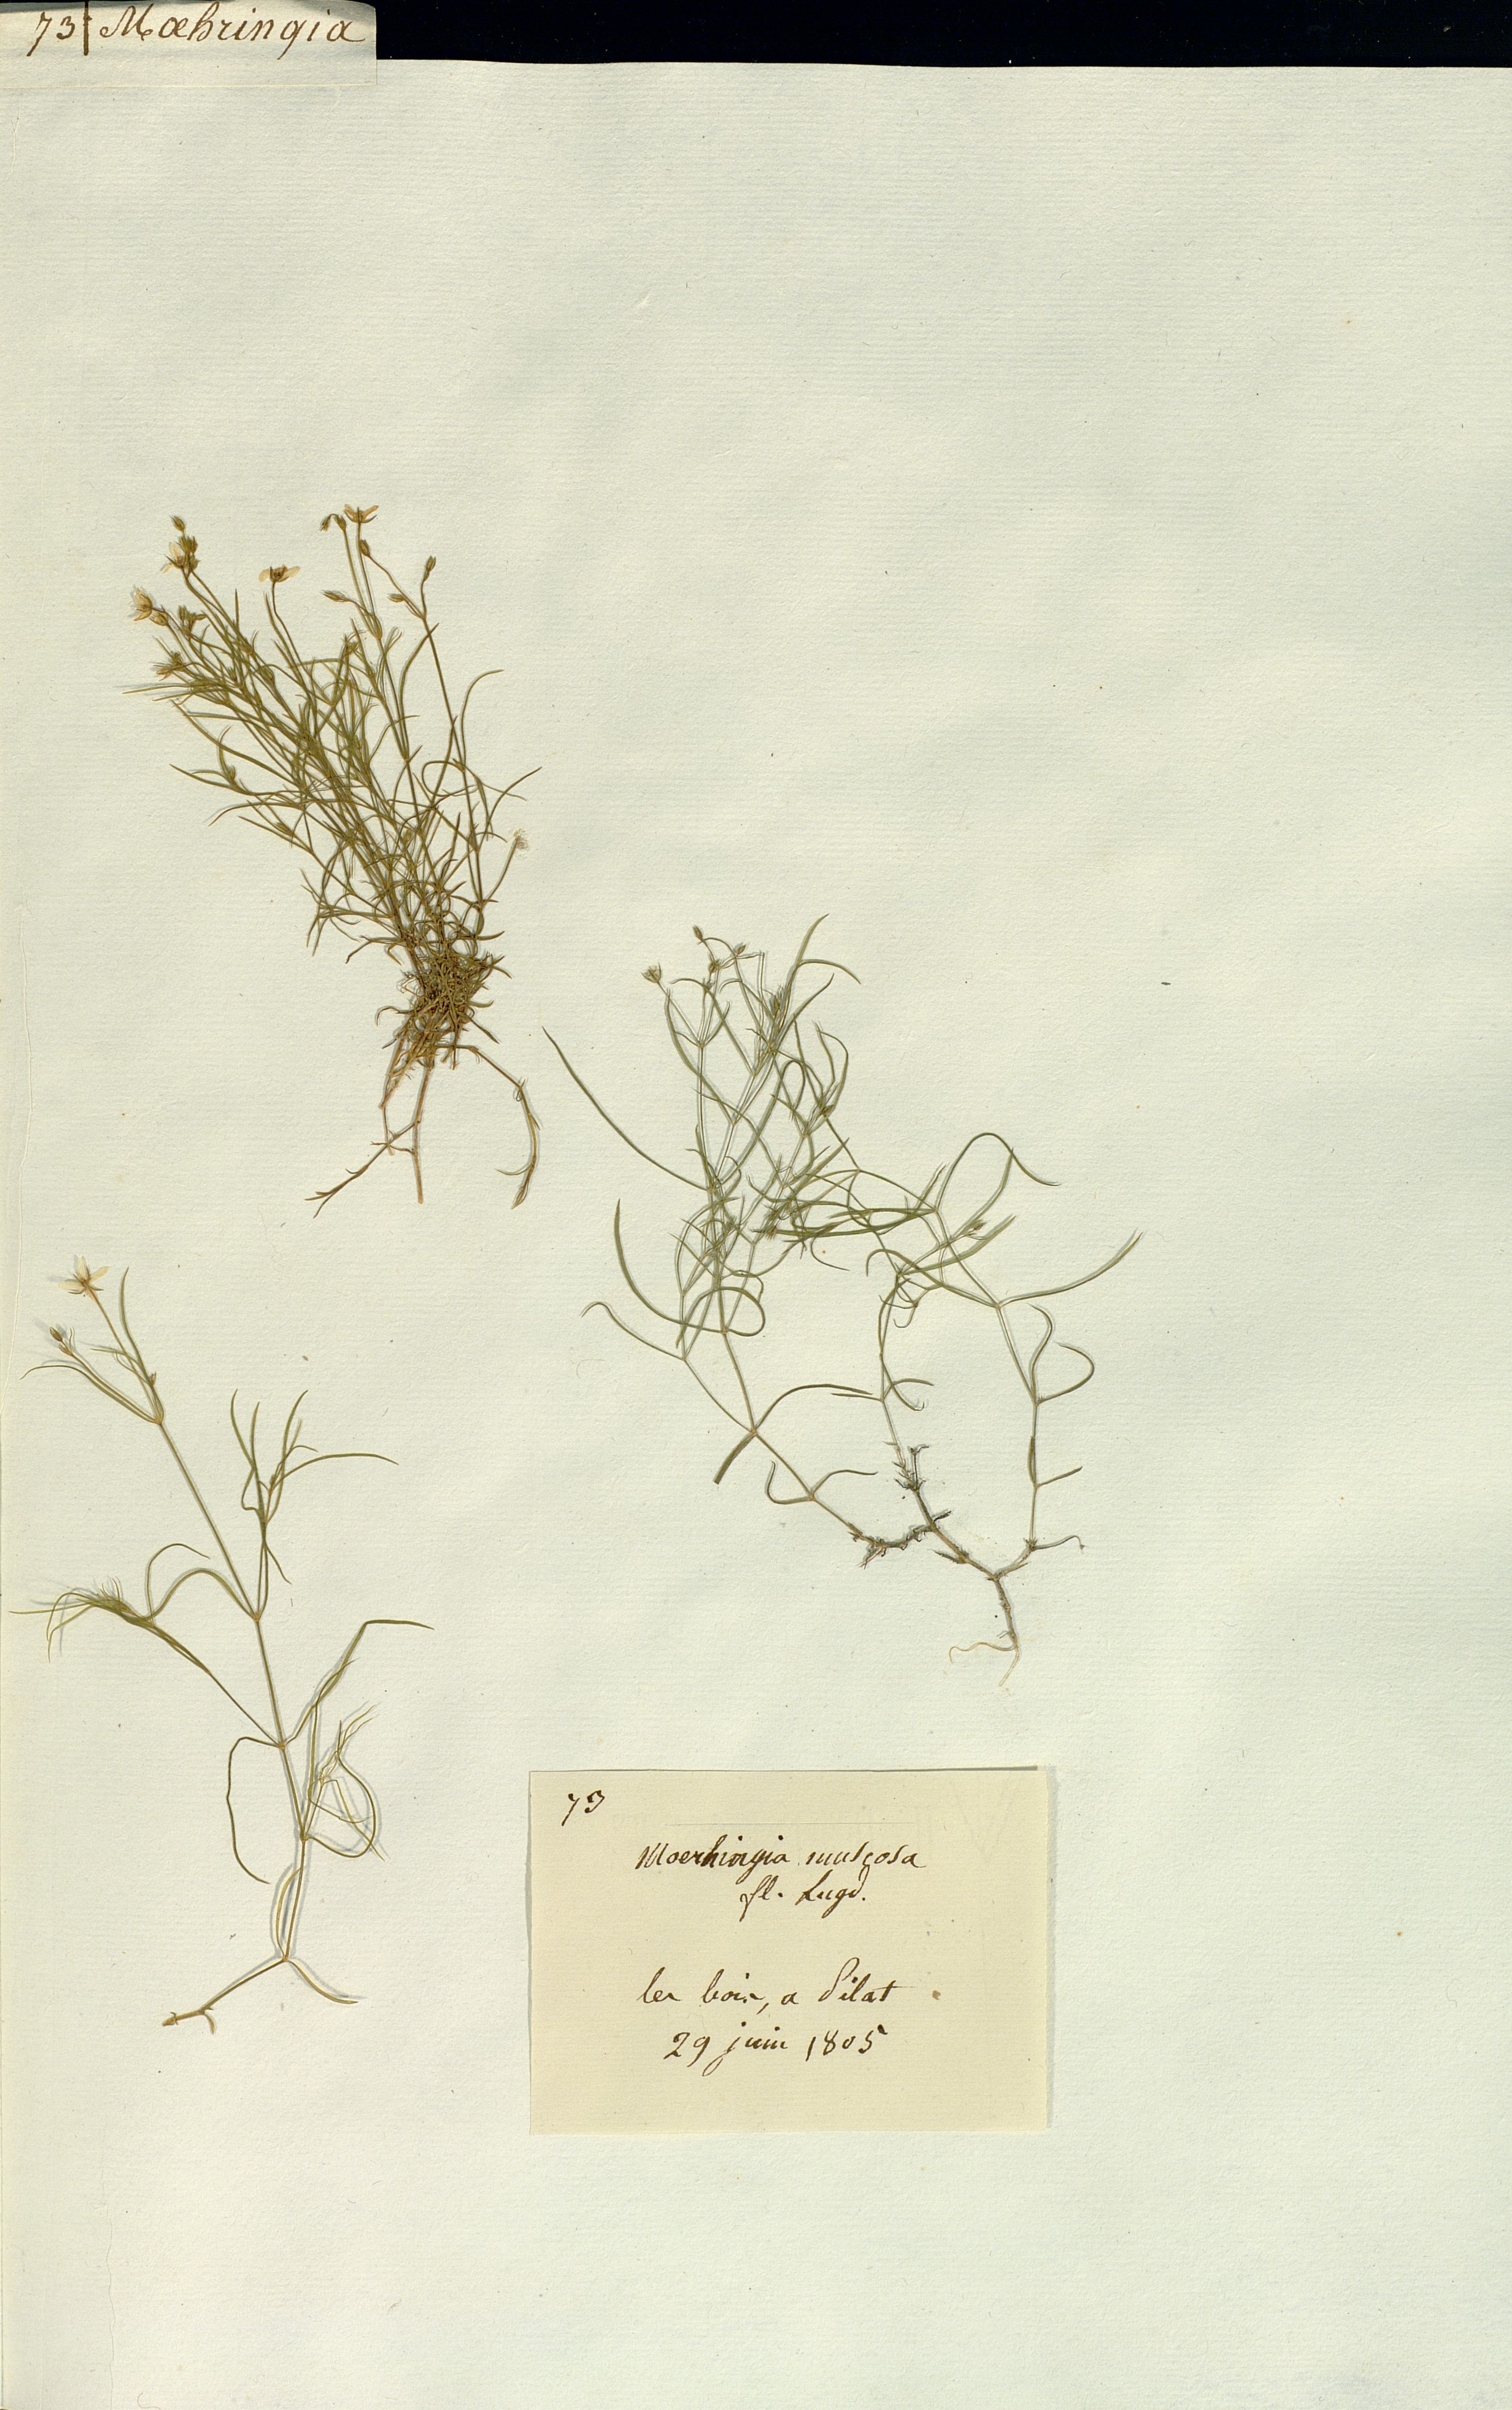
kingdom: Plantae
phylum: Tracheophyta
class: Magnoliopsida
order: Caryophyllales
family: Caryophyllaceae
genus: Moehringia
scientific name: Moehringia muscosa
